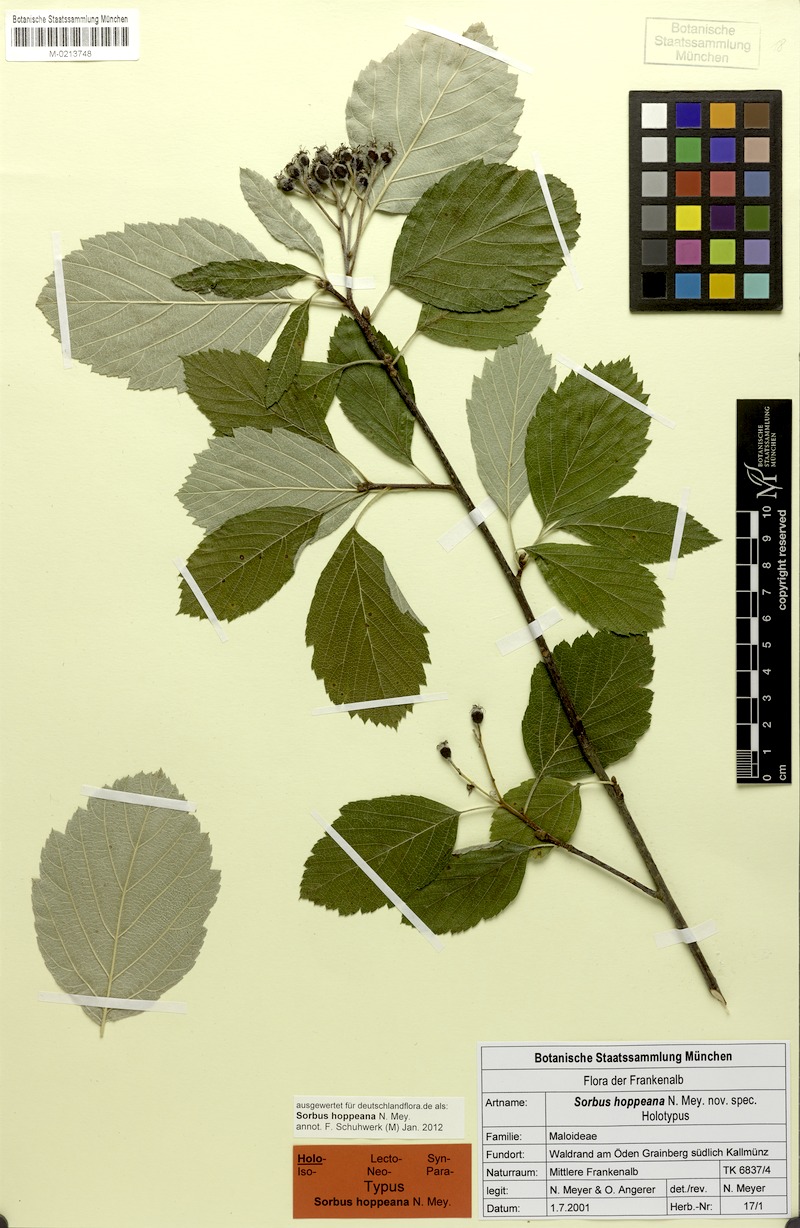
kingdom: Plantae
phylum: Tracheophyta
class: Magnoliopsida
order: Rosales
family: Rosaceae
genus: Karpatiosorbus
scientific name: Karpatiosorbus hoppeana
